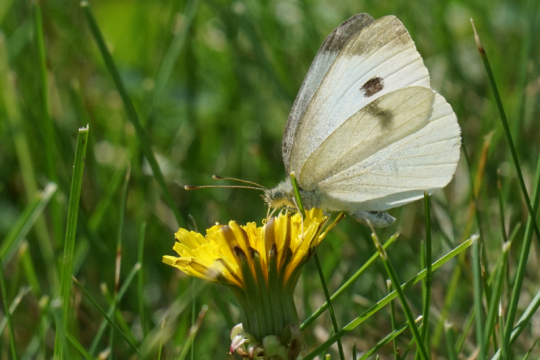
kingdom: Animalia
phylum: Arthropoda
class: Insecta
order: Lepidoptera
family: Pieridae
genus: Pieris
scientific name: Pieris rapae
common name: Cabbage White
